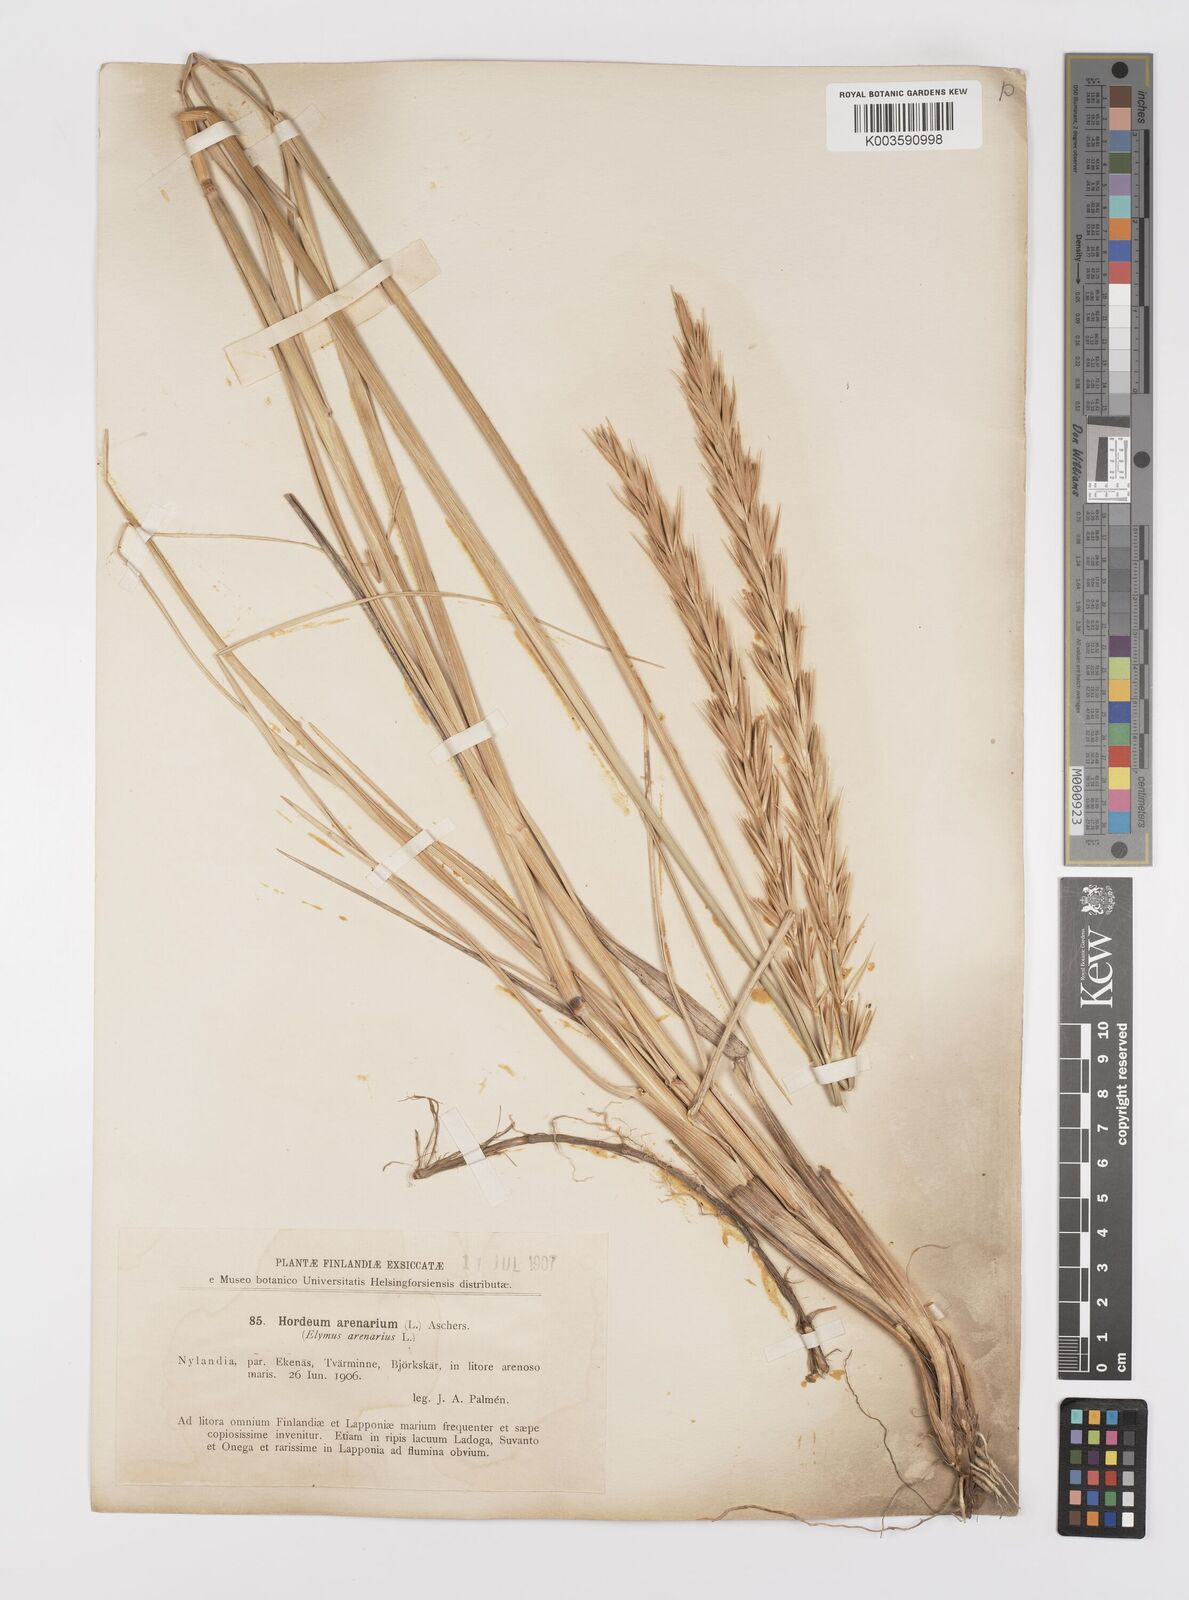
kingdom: Plantae
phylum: Tracheophyta
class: Liliopsida
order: Poales
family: Poaceae
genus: Leymus
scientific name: Leymus arenarius
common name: Lyme-grass
